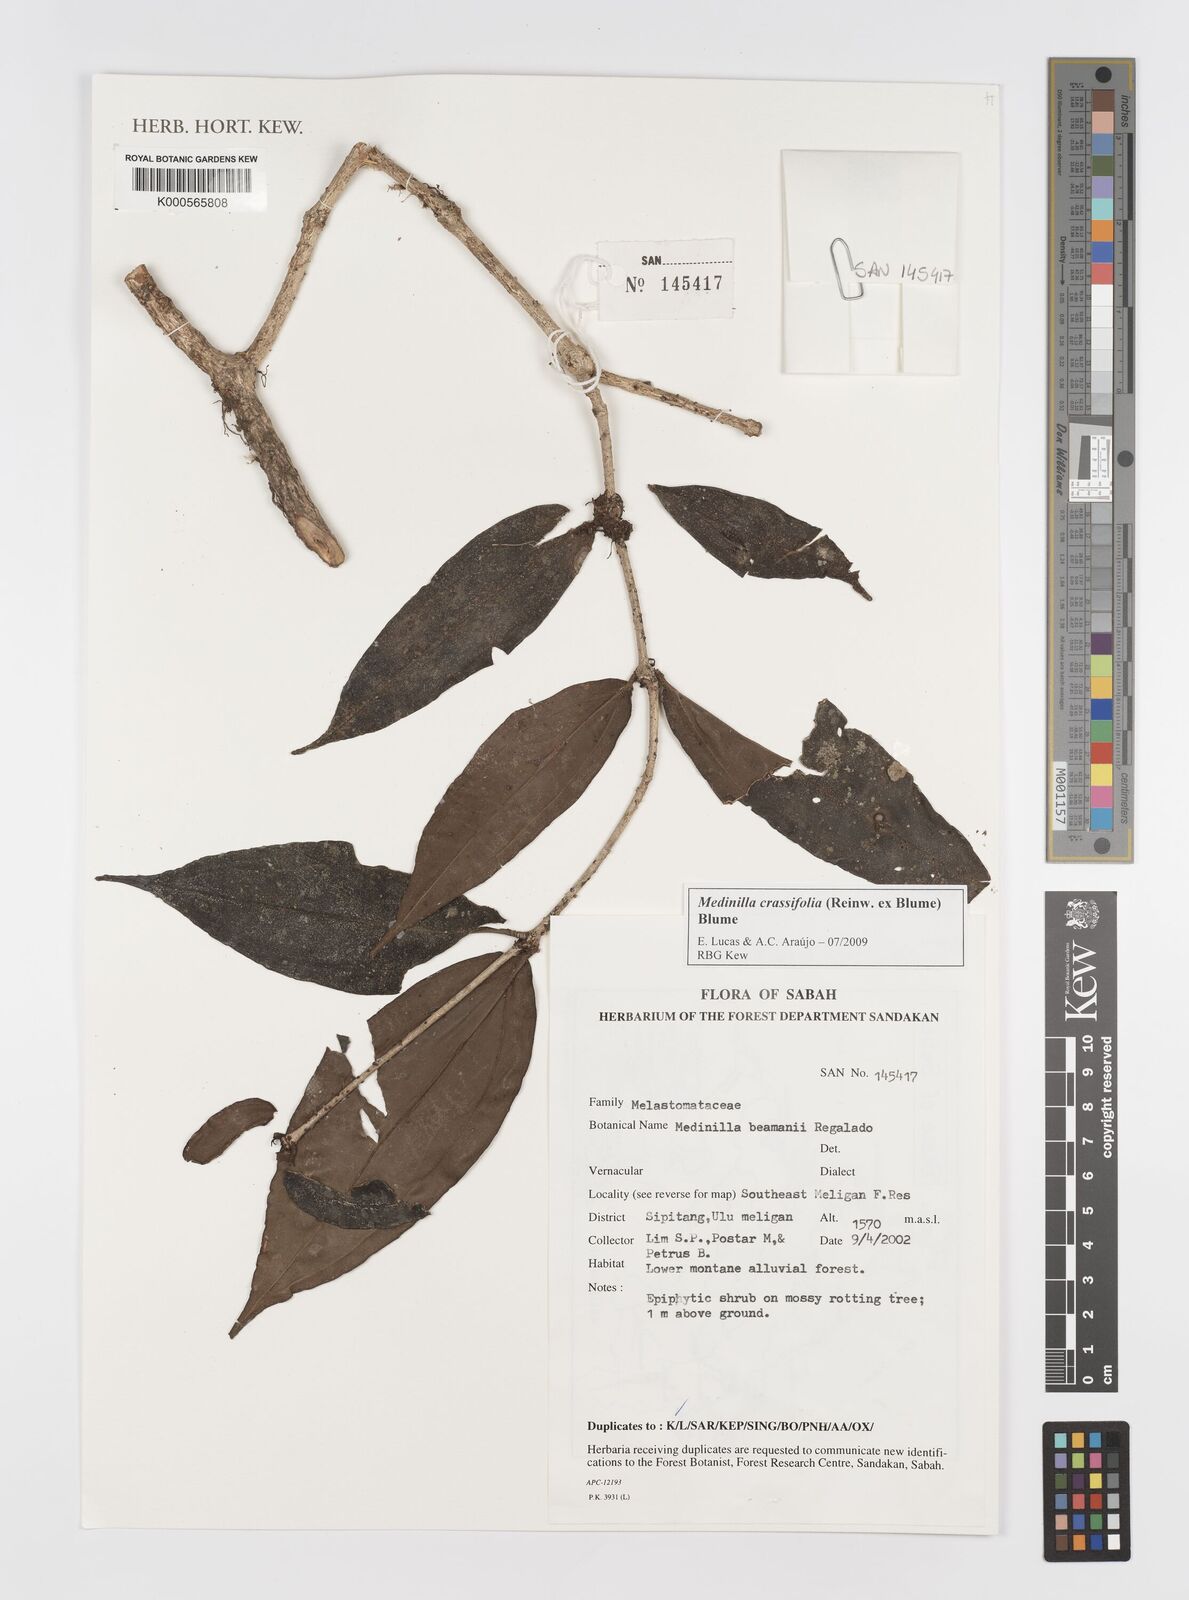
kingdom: Plantae
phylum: Tracheophyta
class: Magnoliopsida
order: Myrtales
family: Melastomataceae
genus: Medinilla
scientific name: Medinilla crassifolia
